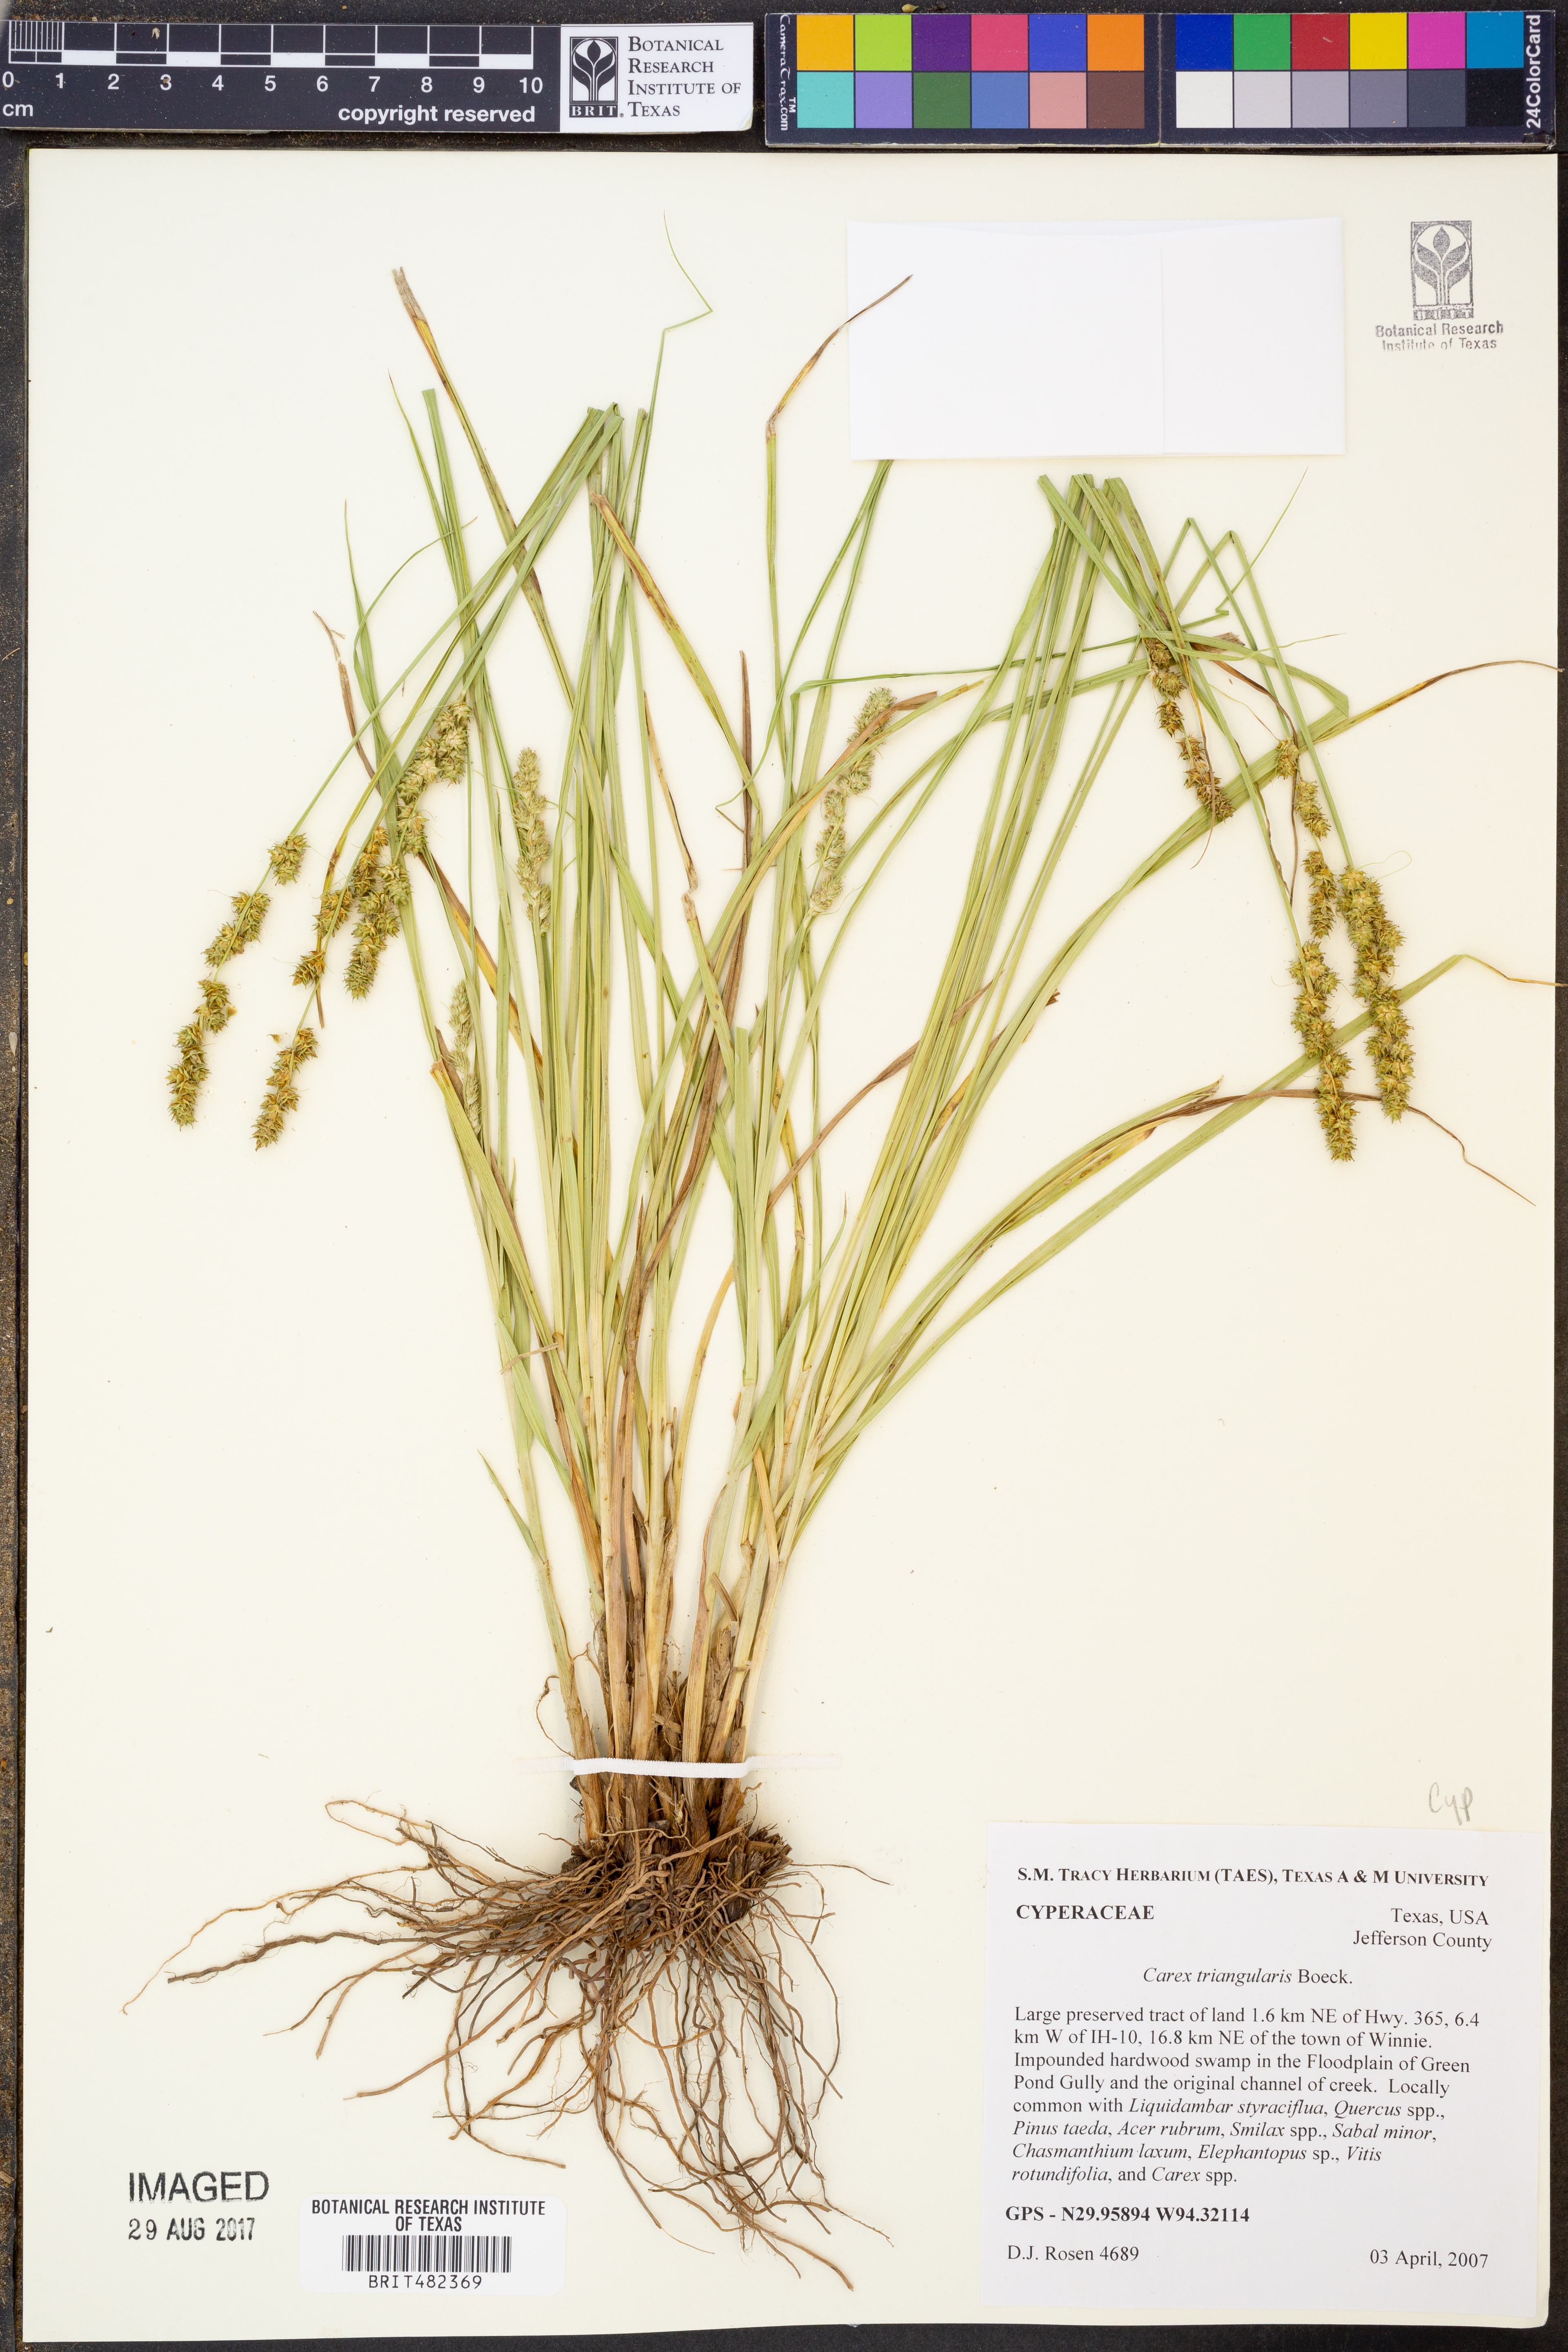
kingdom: Plantae
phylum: Tracheophyta
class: Liliopsida
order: Poales
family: Cyperaceae
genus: Carex
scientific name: Carex triangularis
